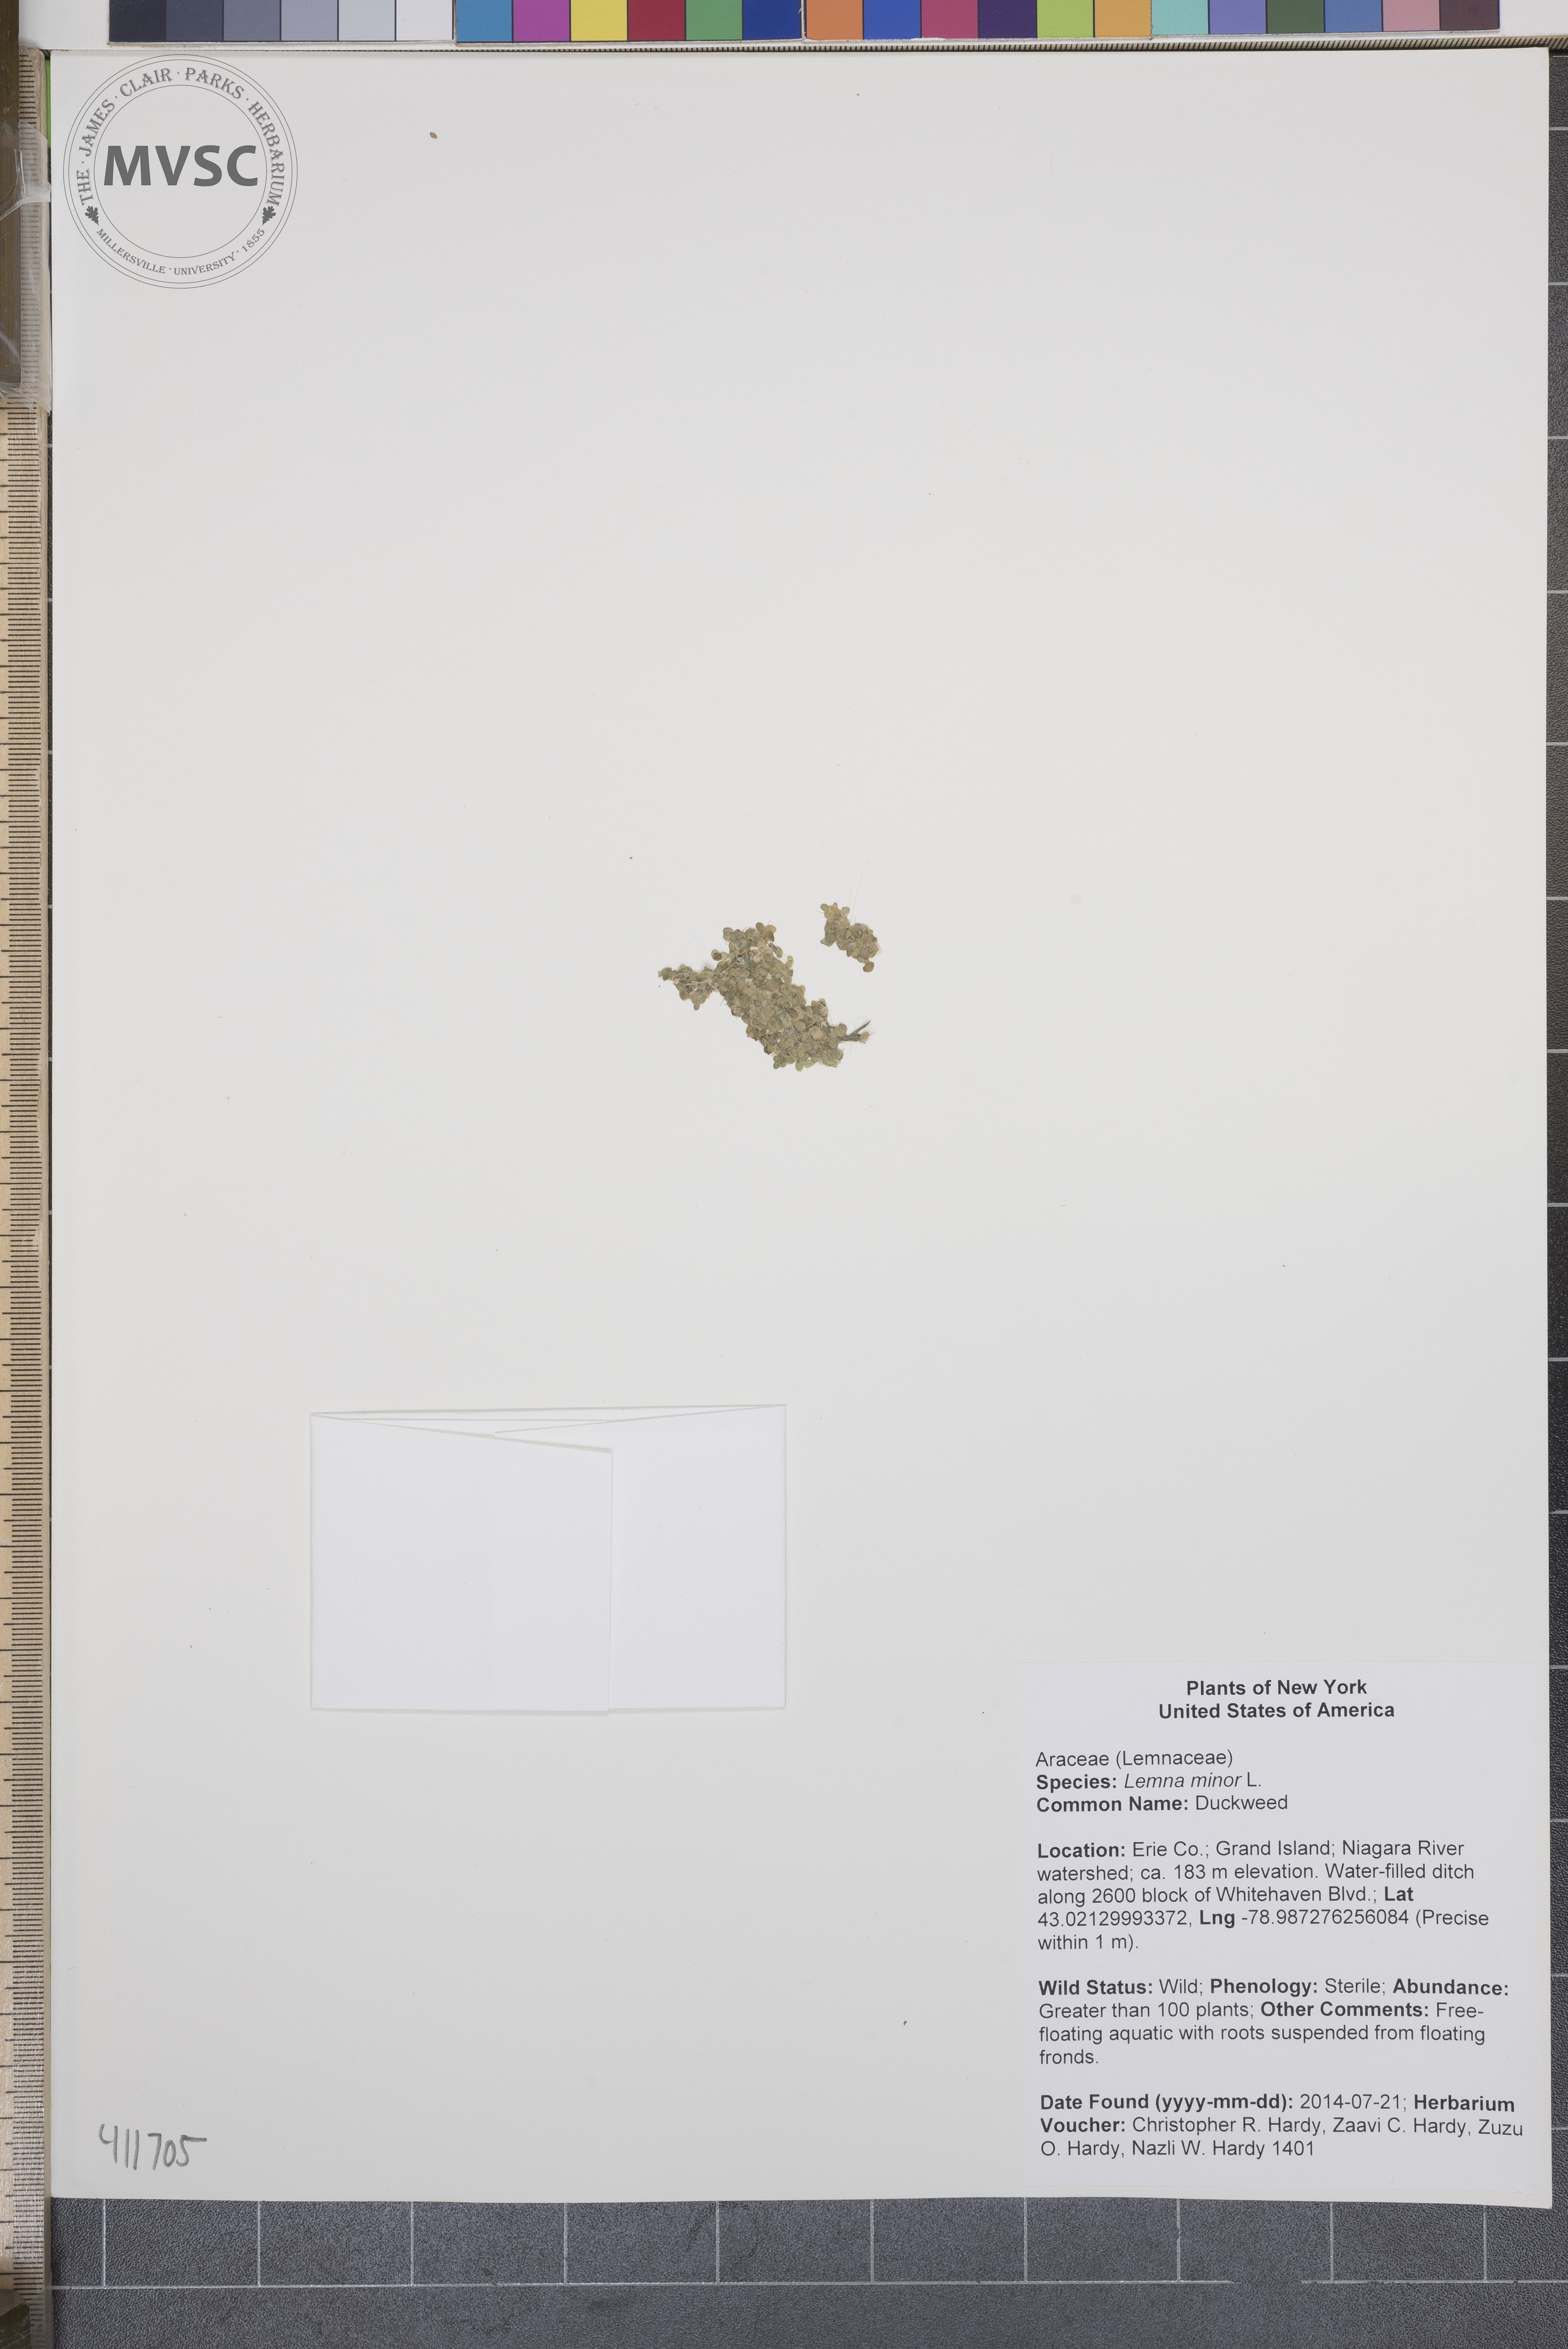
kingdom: Plantae
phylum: Tracheophyta
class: Liliopsida
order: Alismatales
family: Araceae
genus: Lemna
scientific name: Lemna minor
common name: Duckweed
